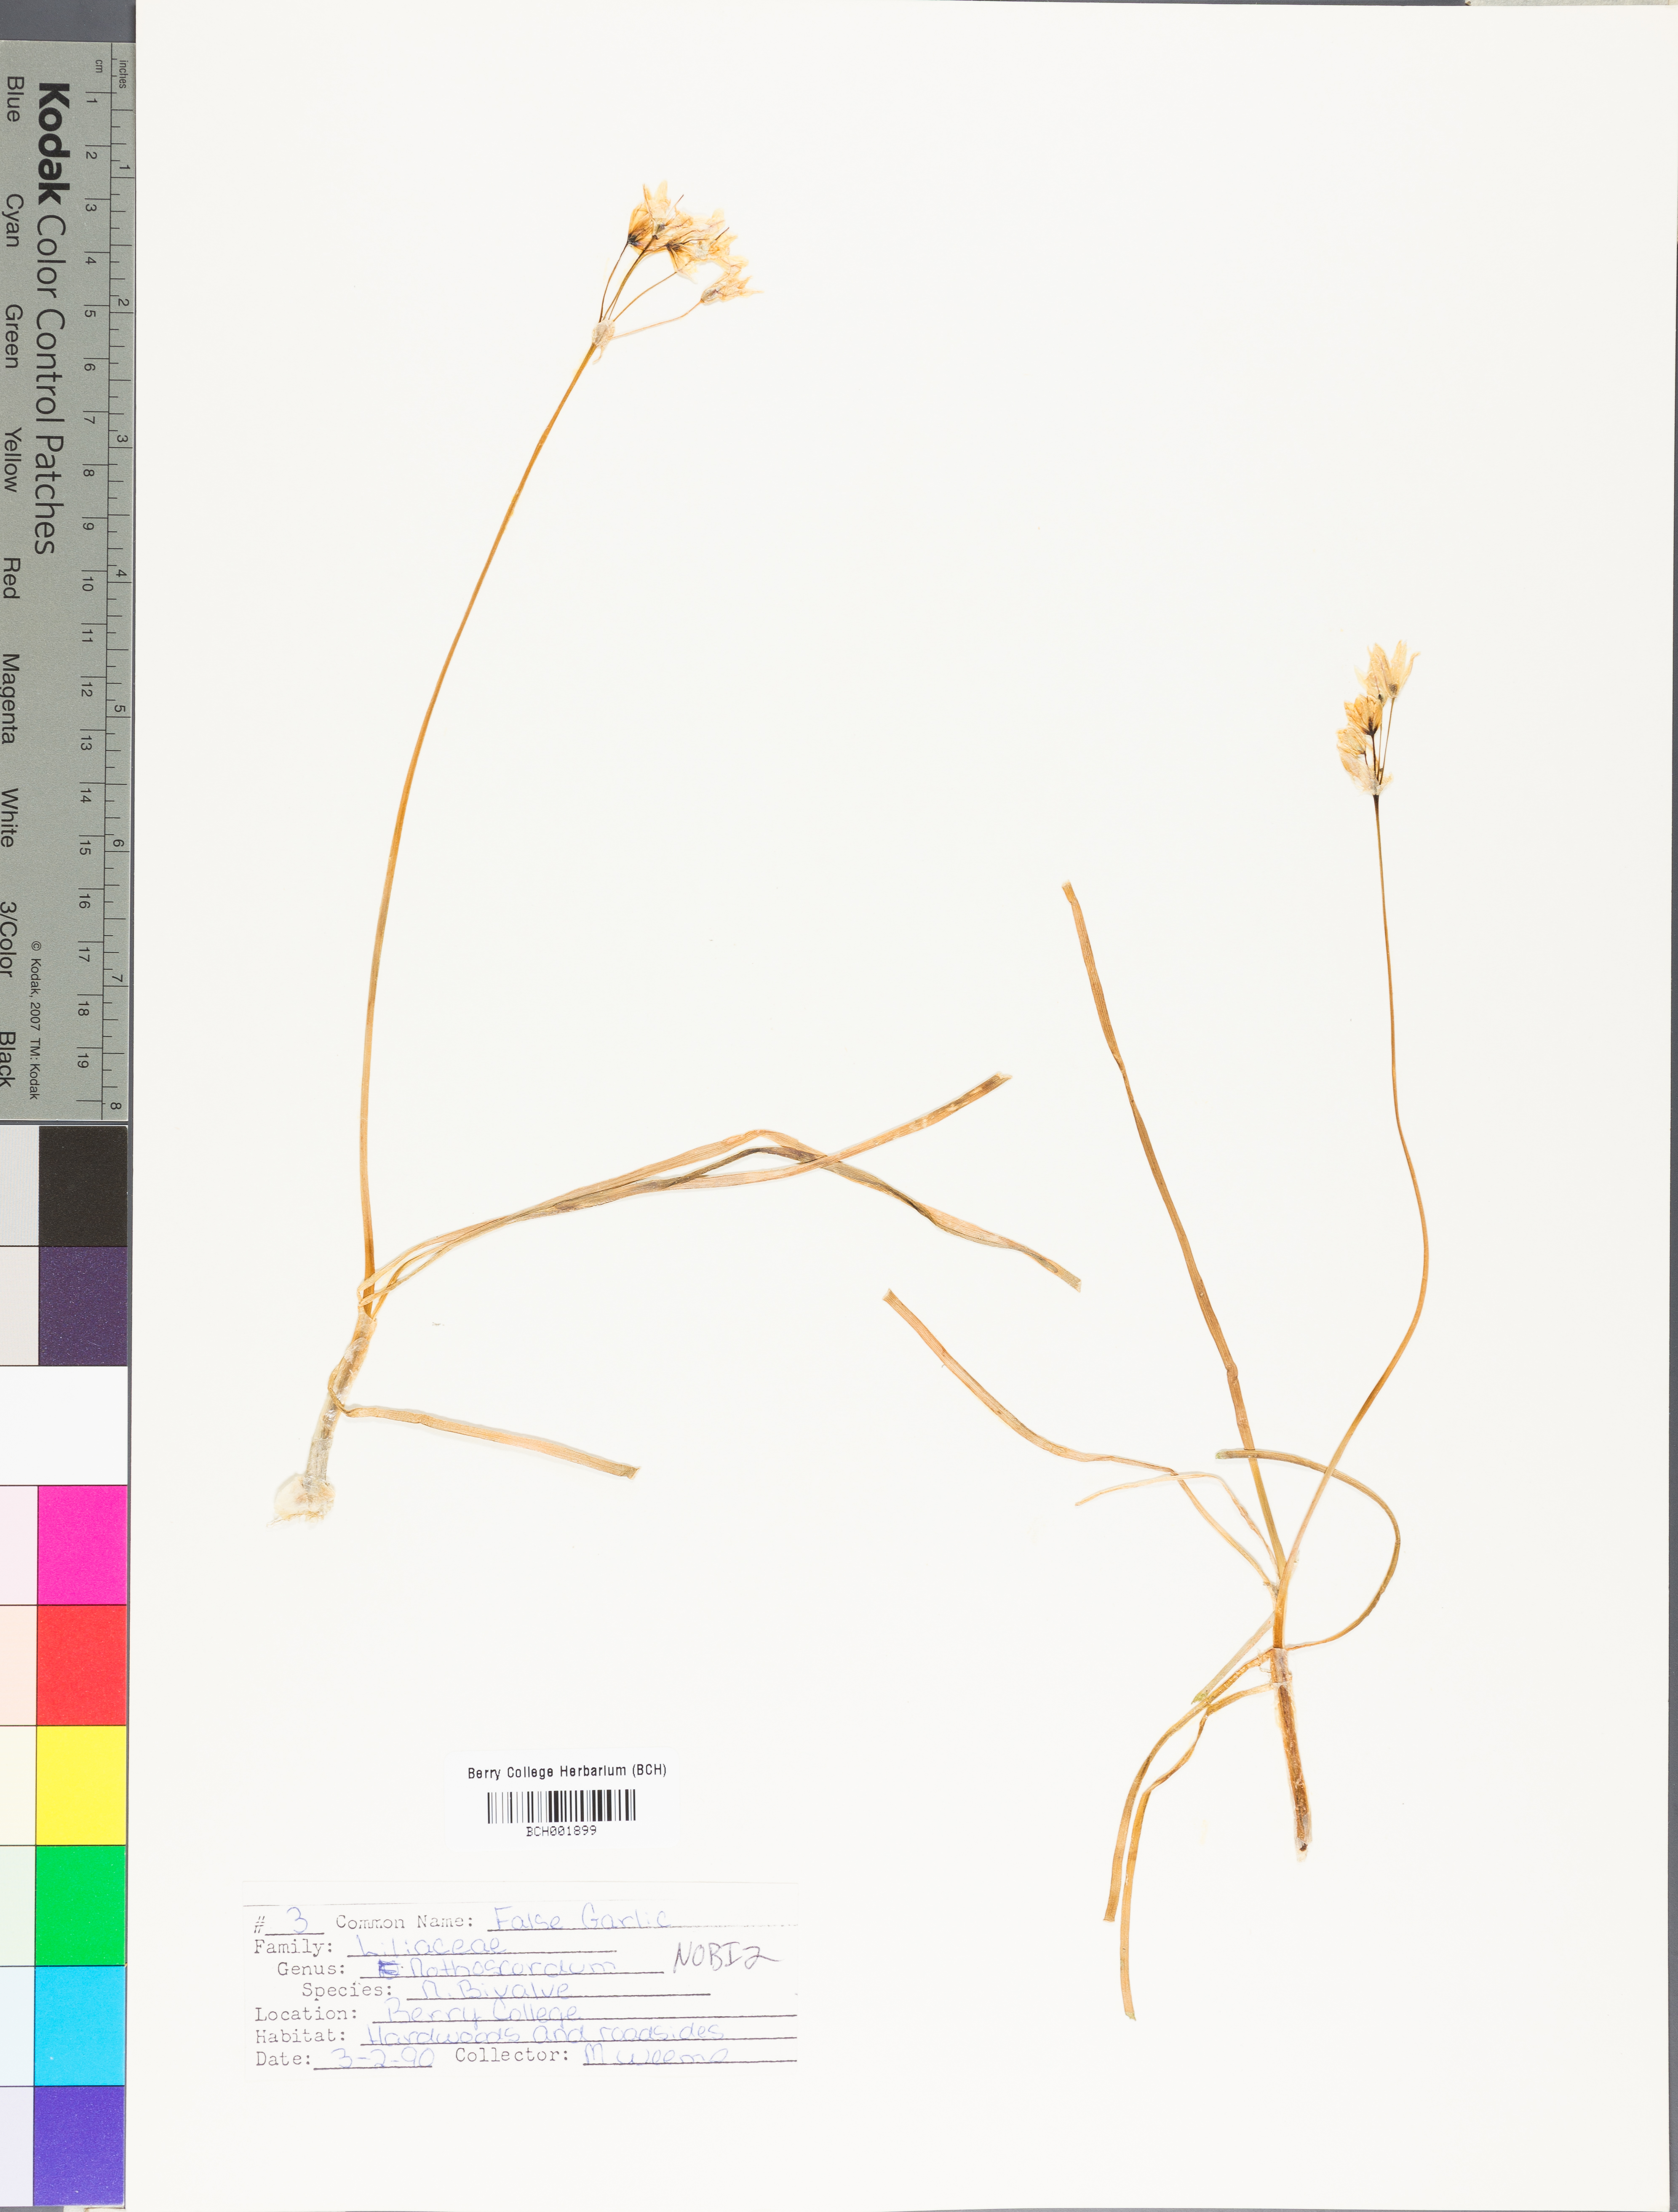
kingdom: Plantae
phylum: Tracheophyta
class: Liliopsida
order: Asparagales
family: Amaryllidaceae
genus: Nothoscordum
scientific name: Nothoscordum bivalve
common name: Crow-poison
